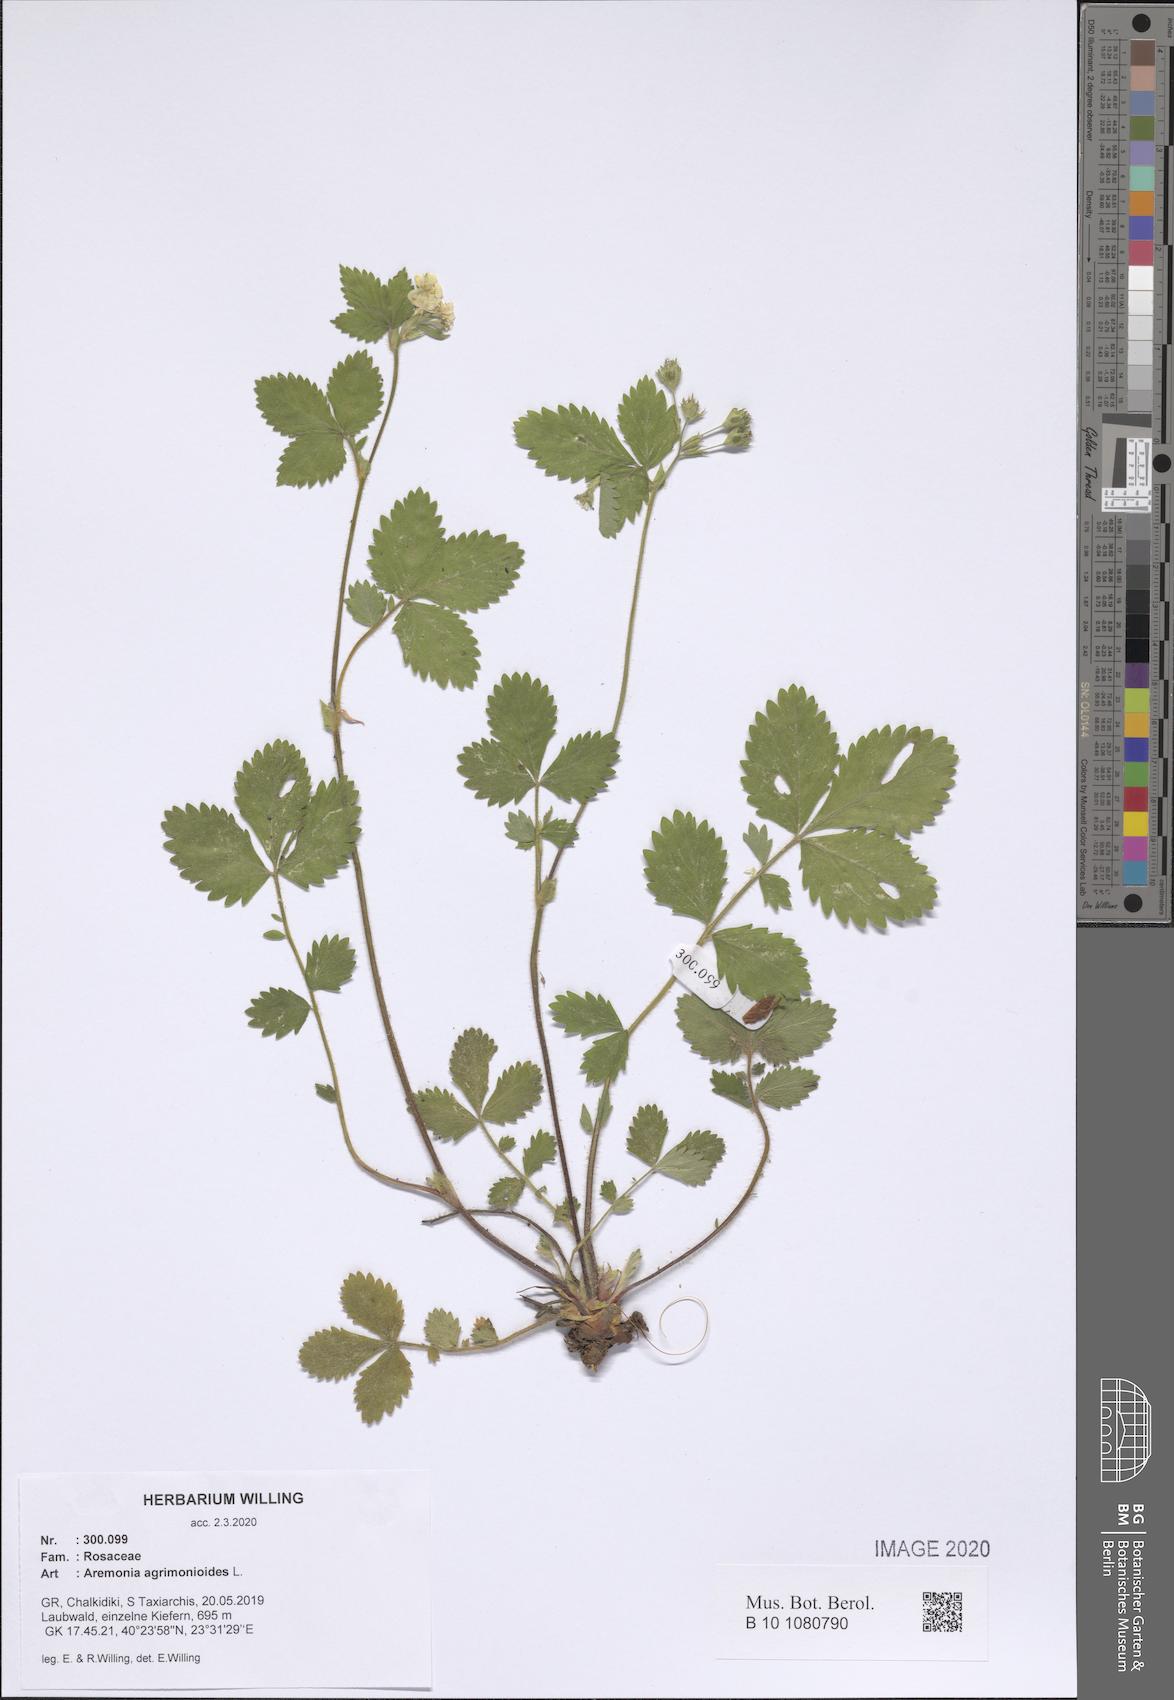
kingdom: Plantae
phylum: Tracheophyta
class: Magnoliopsida
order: Rosales
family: Rosaceae
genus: Aremonia
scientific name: Aremonia agrimonioides
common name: Bastard agrimony
